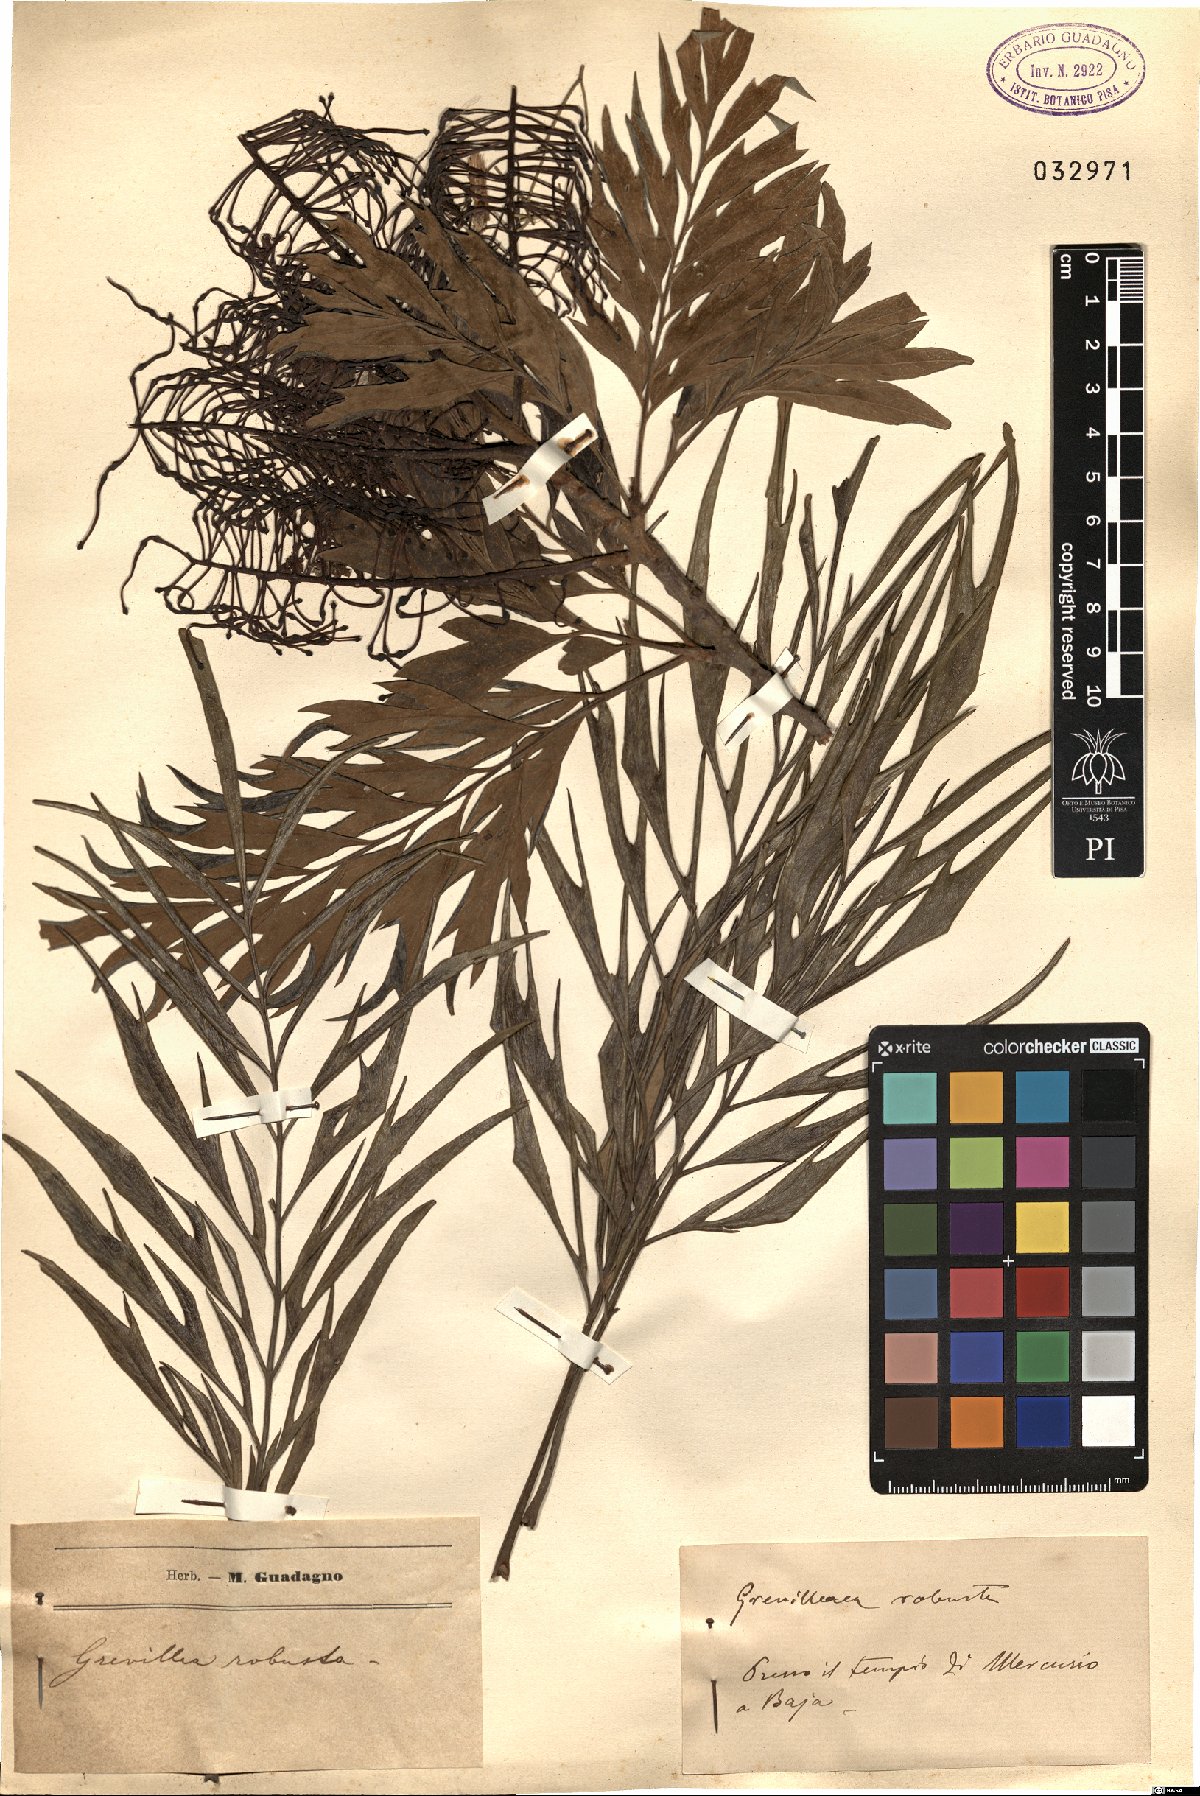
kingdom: Plantae
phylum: Tracheophyta
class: Magnoliopsida
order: Proteales
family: Proteaceae
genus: Grevillea
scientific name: Grevillea robusta
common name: Silkoak
